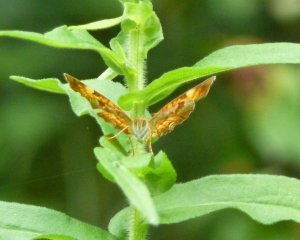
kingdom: Animalia
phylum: Arthropoda
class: Insecta
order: Lepidoptera
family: Nymphalidae
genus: Phyciodes
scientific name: Phyciodes tharos
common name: Northern Crescent
